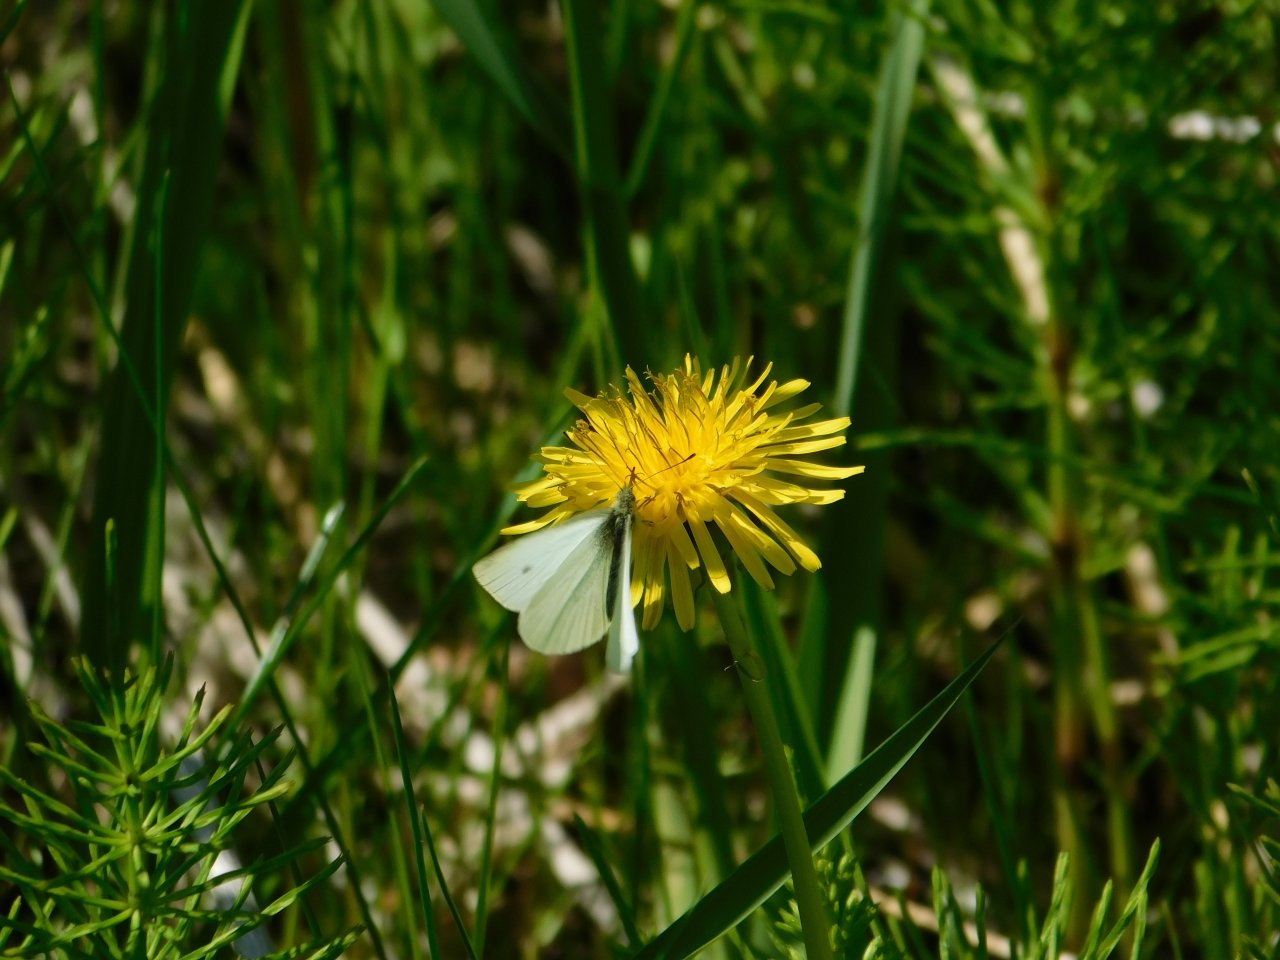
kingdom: Animalia
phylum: Arthropoda
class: Insecta
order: Lepidoptera
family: Pieridae
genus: Pieris
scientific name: Pieris rapae
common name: Cabbage White
